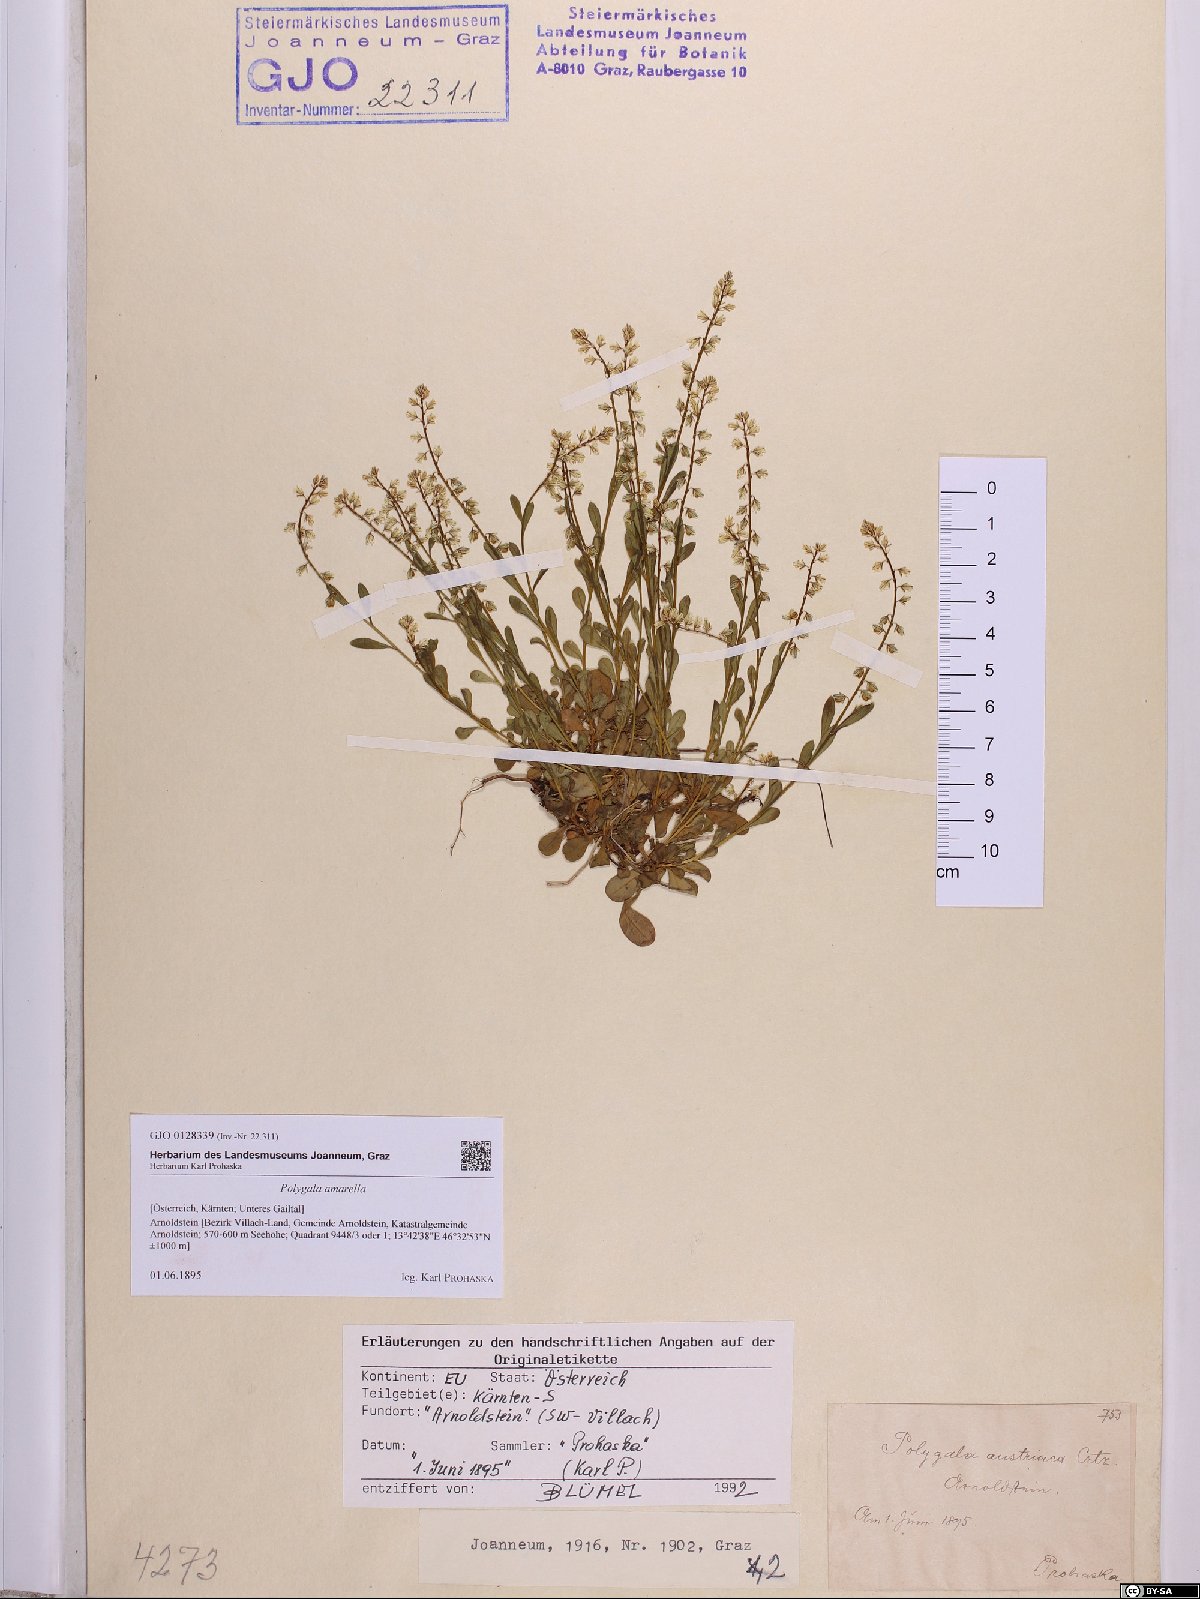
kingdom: Plantae
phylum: Tracheophyta
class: Magnoliopsida
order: Fabales
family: Polygalaceae
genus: Polygala
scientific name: Polygala amarella
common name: Dwarf milkwort
